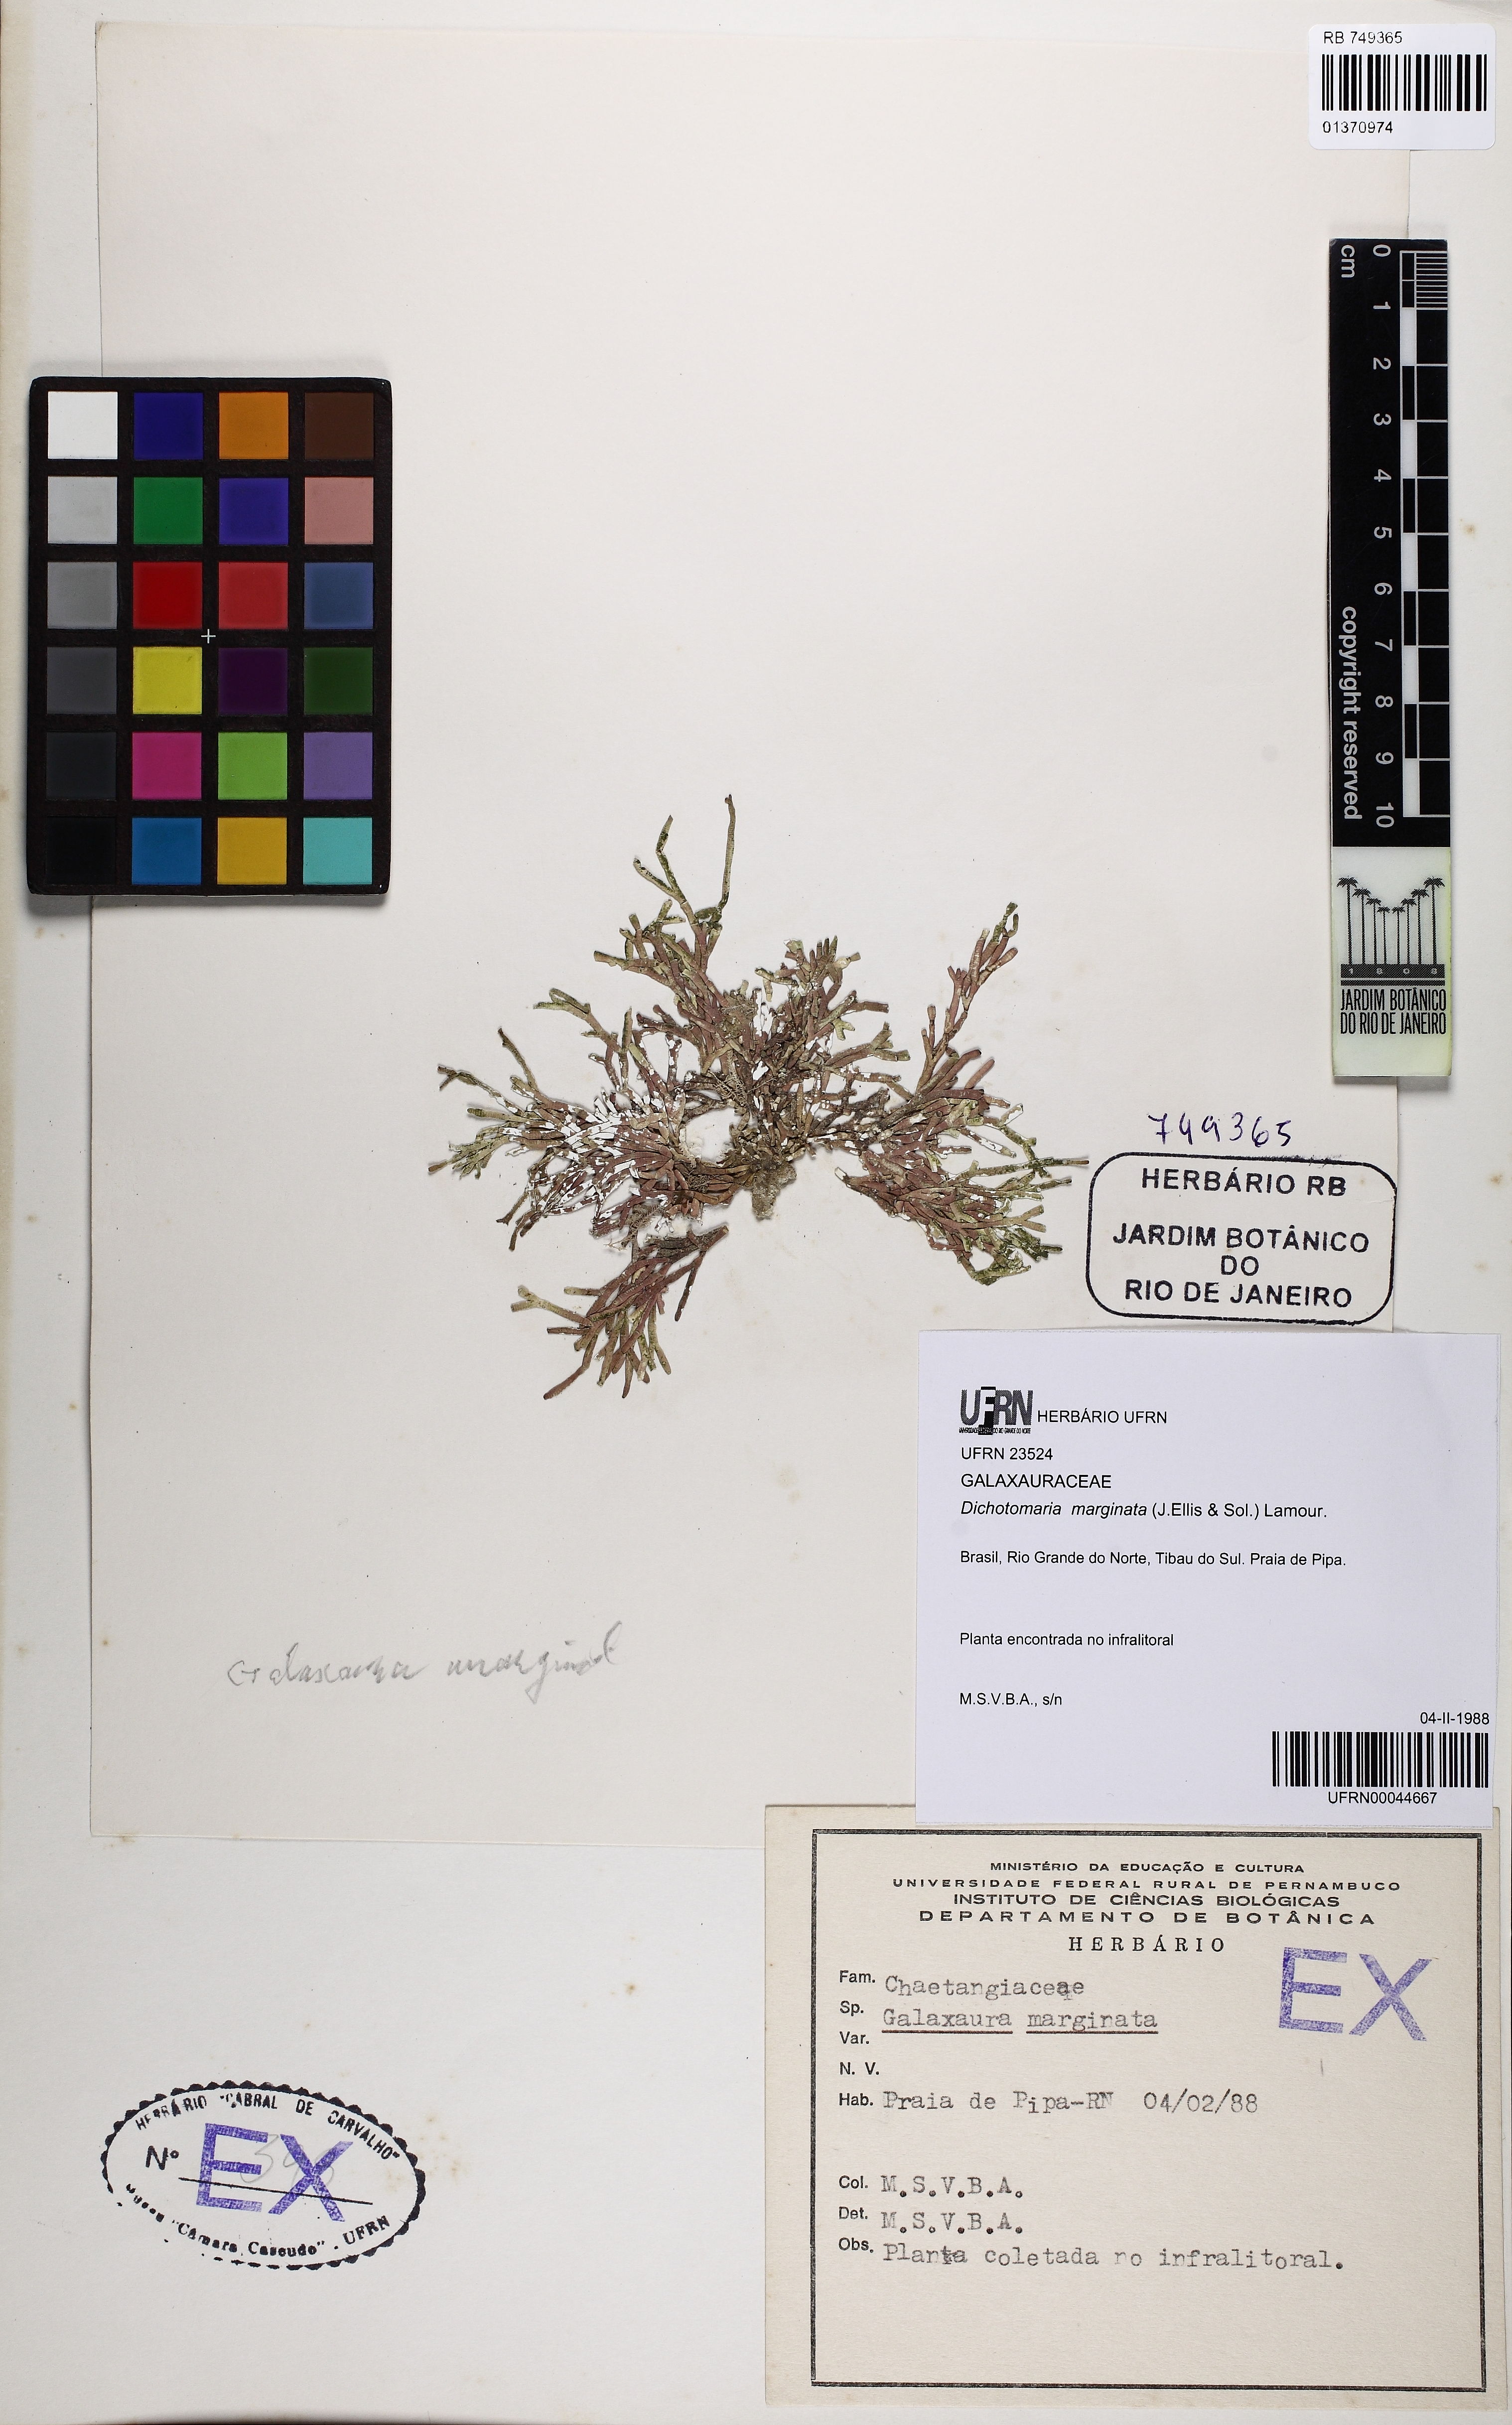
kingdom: Plantae
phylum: Rhodophyta
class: Florideophyceae
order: Nemaliales
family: Galaxauraceae
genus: Dichotomaria
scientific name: Dichotomaria marginata
